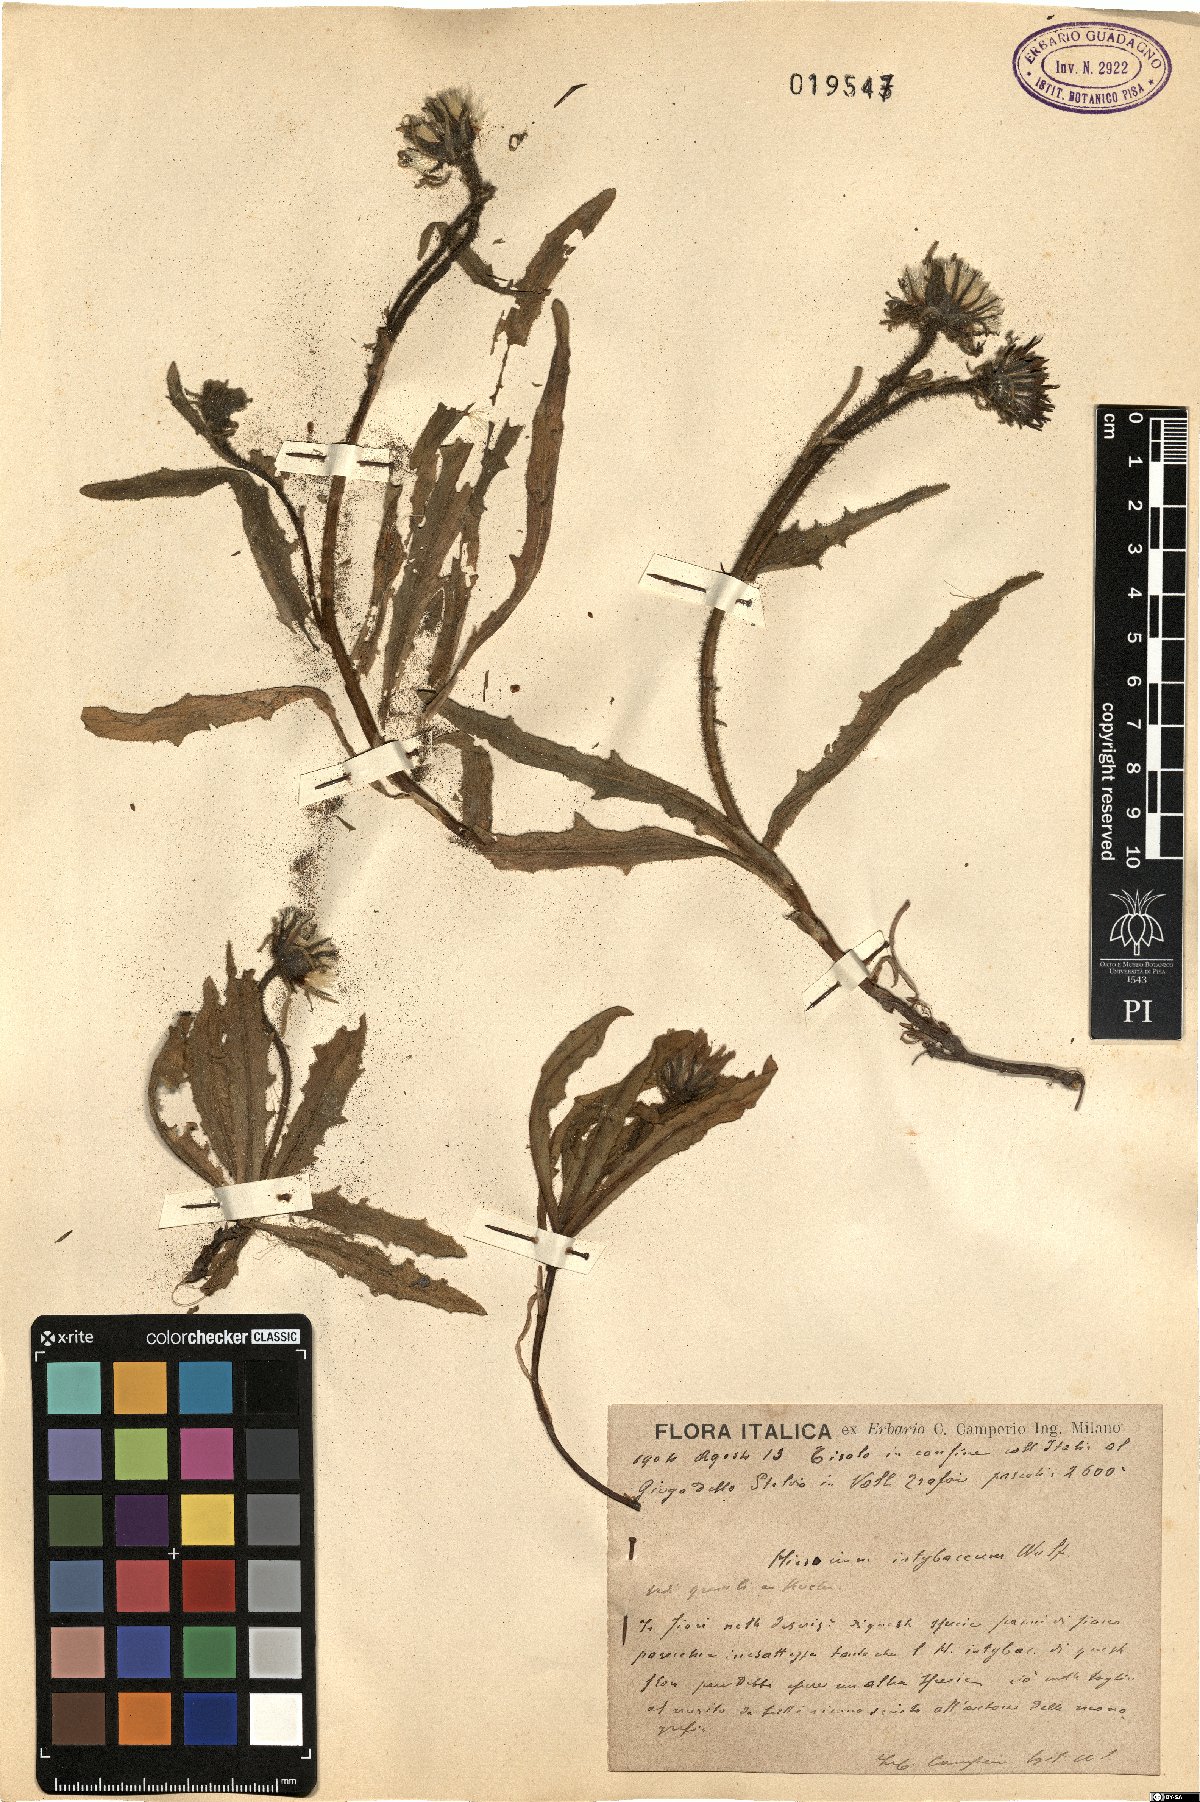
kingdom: Plantae
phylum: Tracheophyta
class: Magnoliopsida
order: Asterales
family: Asteraceae
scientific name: Asteraceae
